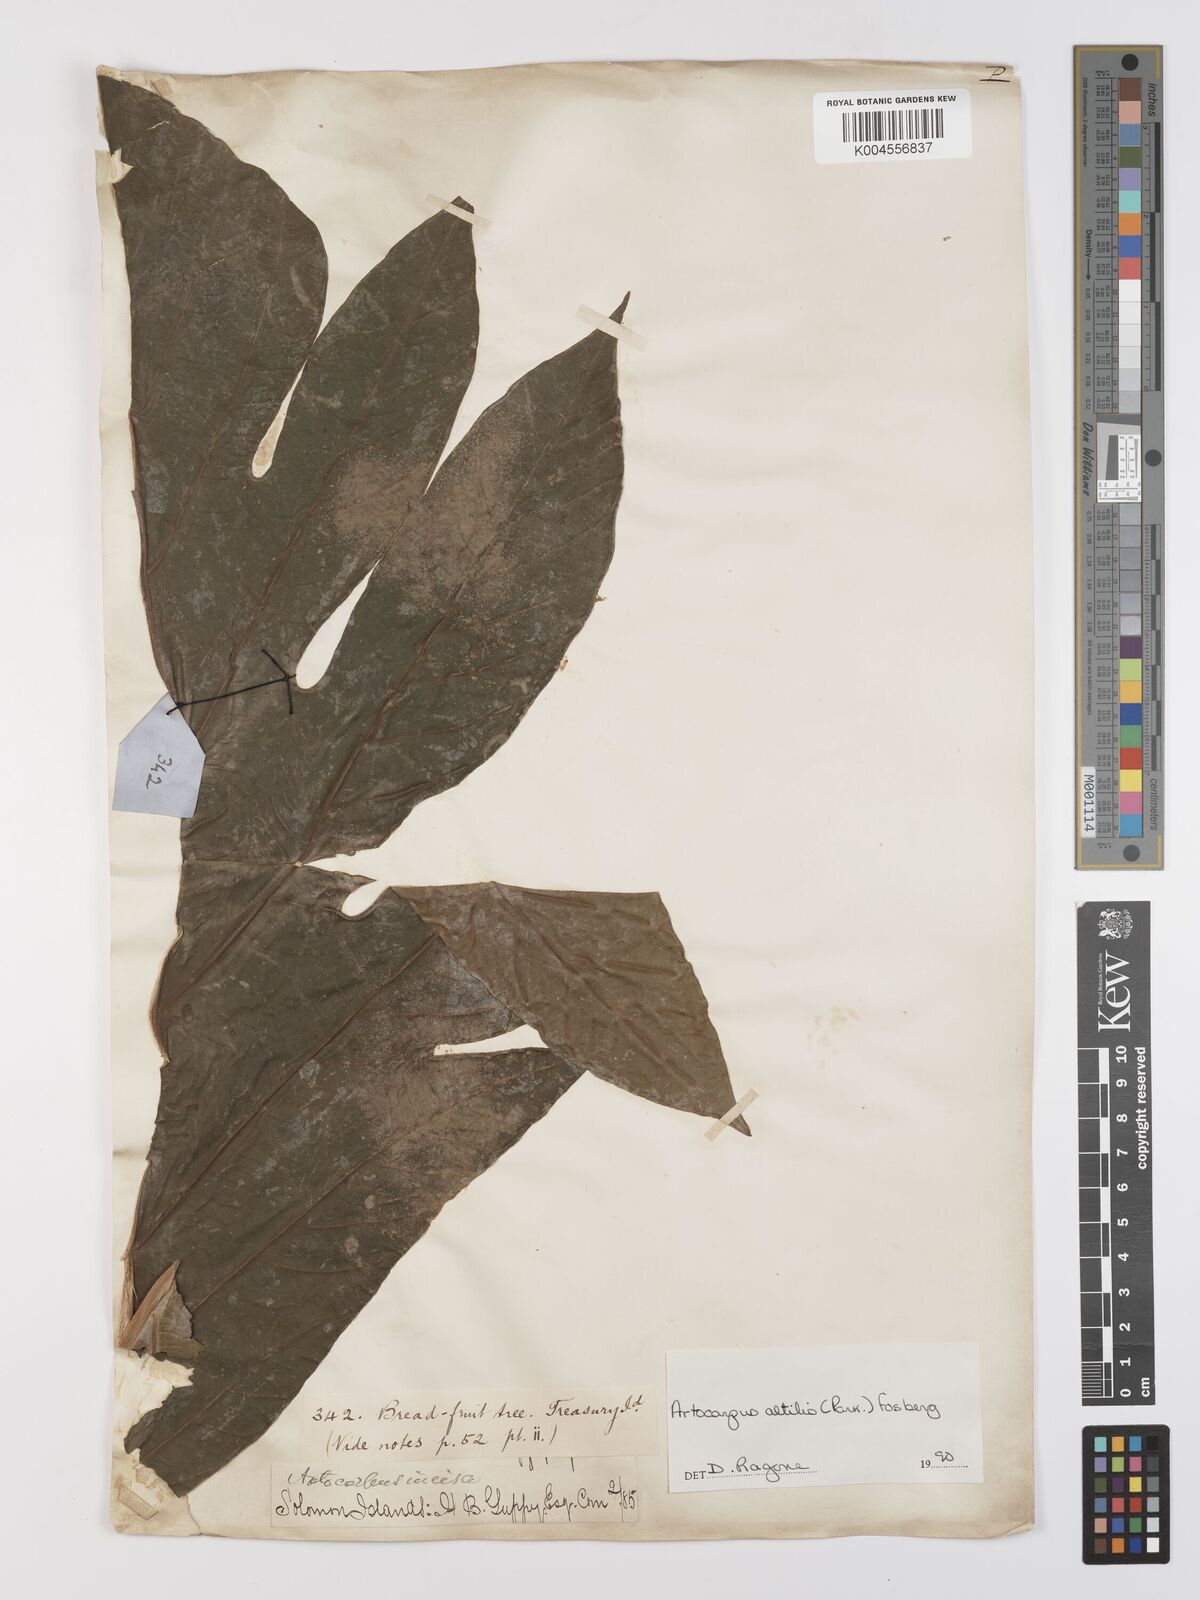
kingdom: Plantae
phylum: Tracheophyta
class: Magnoliopsida
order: Rosales
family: Moraceae
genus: Artocarpus
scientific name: Artocarpus altilis
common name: Breadfruit
